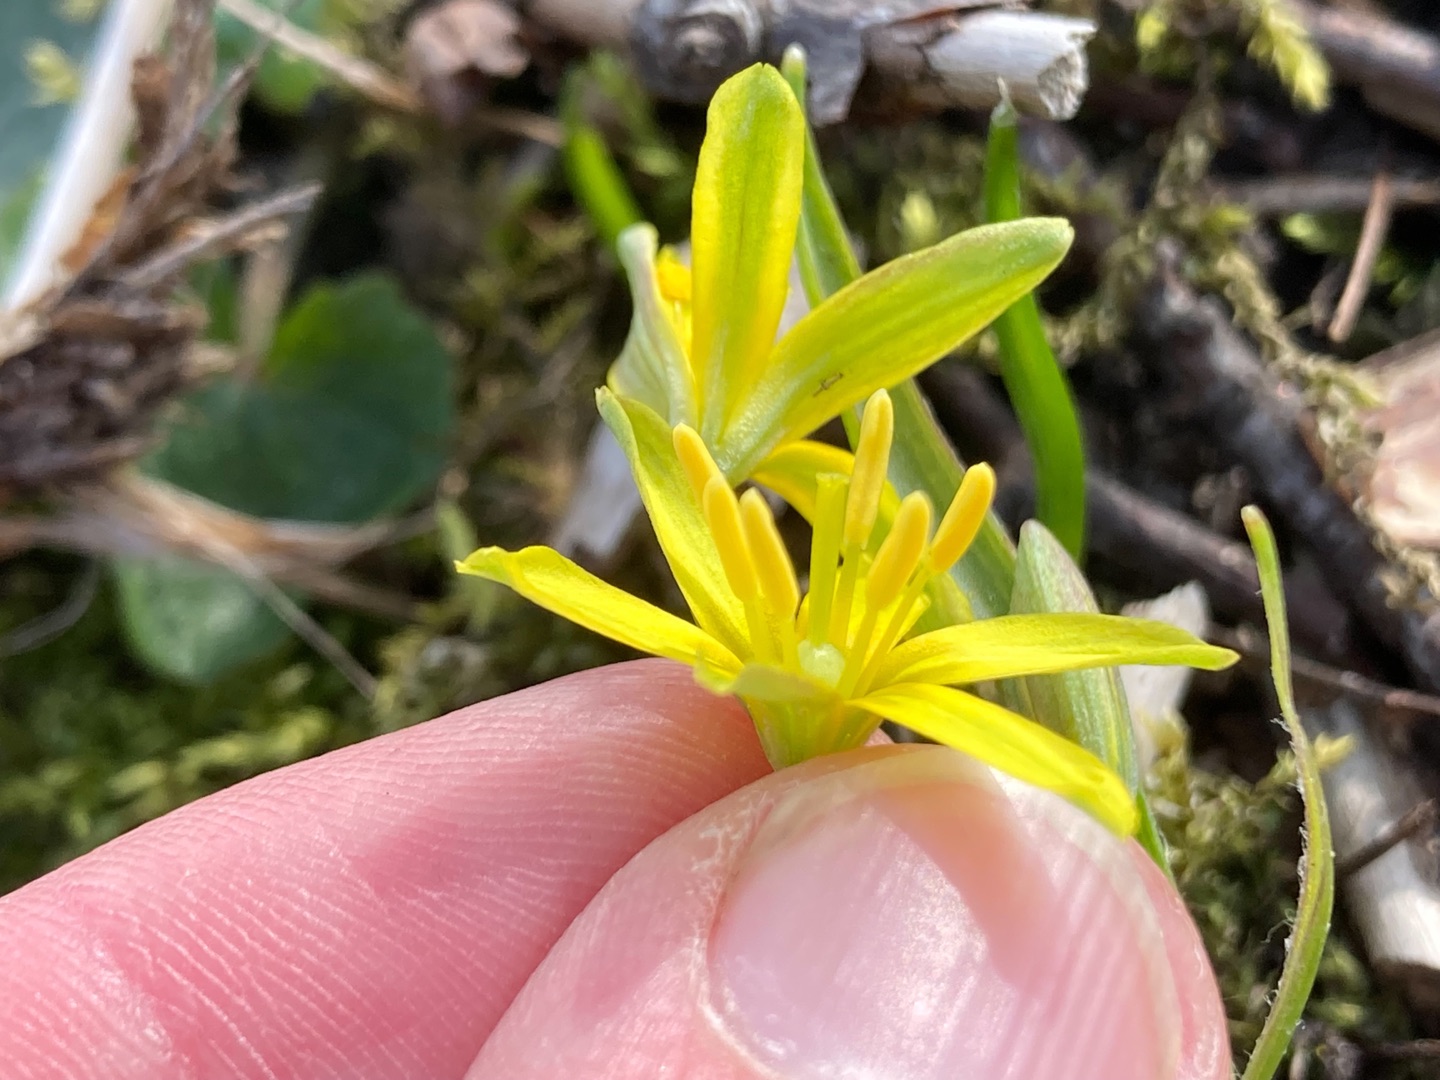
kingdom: Plantae
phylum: Tracheophyta
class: Liliopsida
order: Liliales
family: Liliaceae
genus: Gagea
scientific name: Gagea lutea
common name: Almindelig guldstjerne
